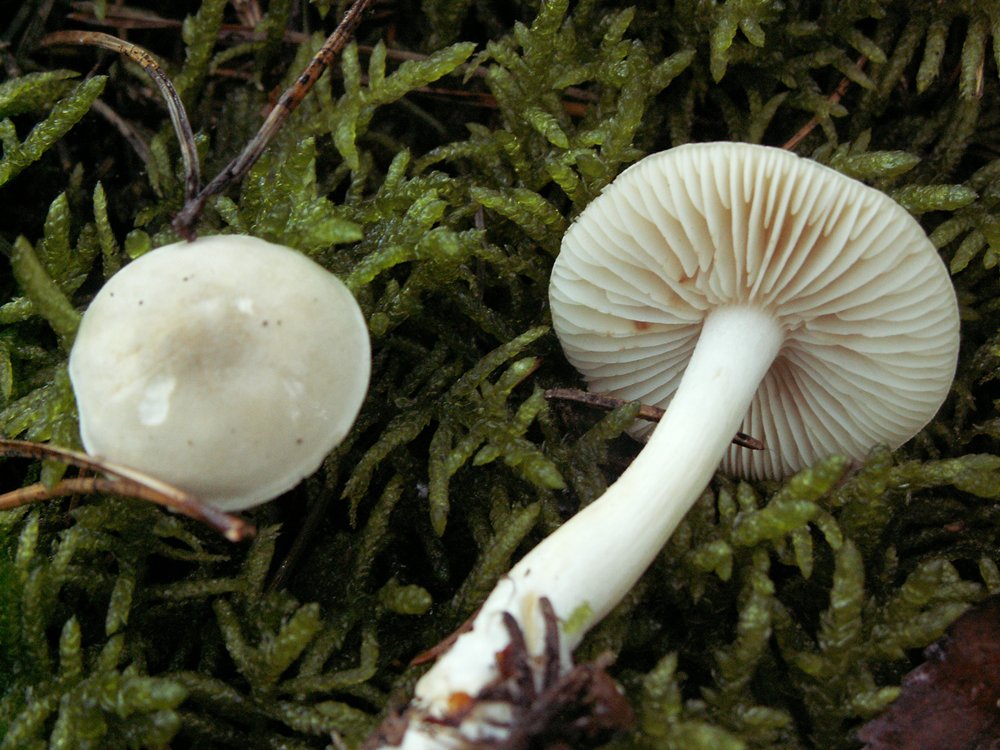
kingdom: Fungi
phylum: Basidiomycota
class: Agaricomycetes
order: Agaricales
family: Tricholomataceae
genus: Tricholoma
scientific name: Tricholoma inamoenum
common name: højstokket ridderhat
